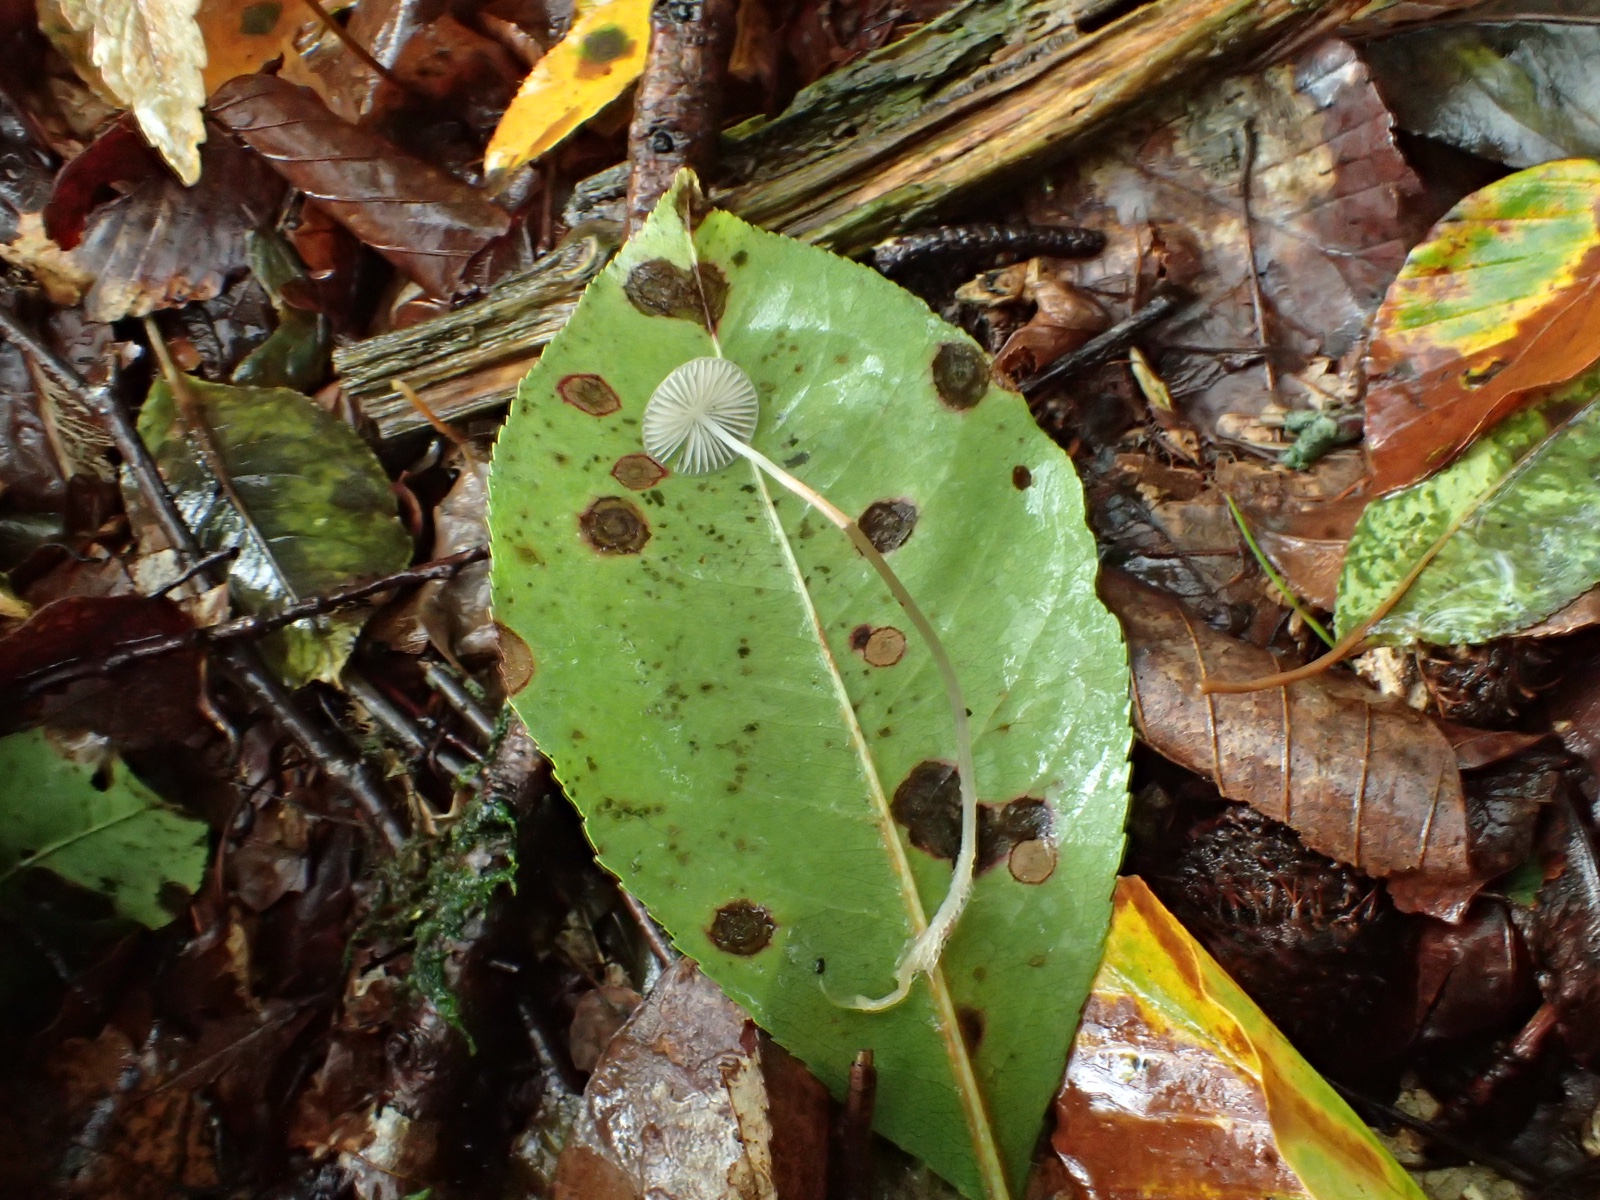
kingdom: Fungi
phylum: Basidiomycota
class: Agaricomycetes
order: Agaricales
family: Mycenaceae
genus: Mycena
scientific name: Mycena
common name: huesvamp
